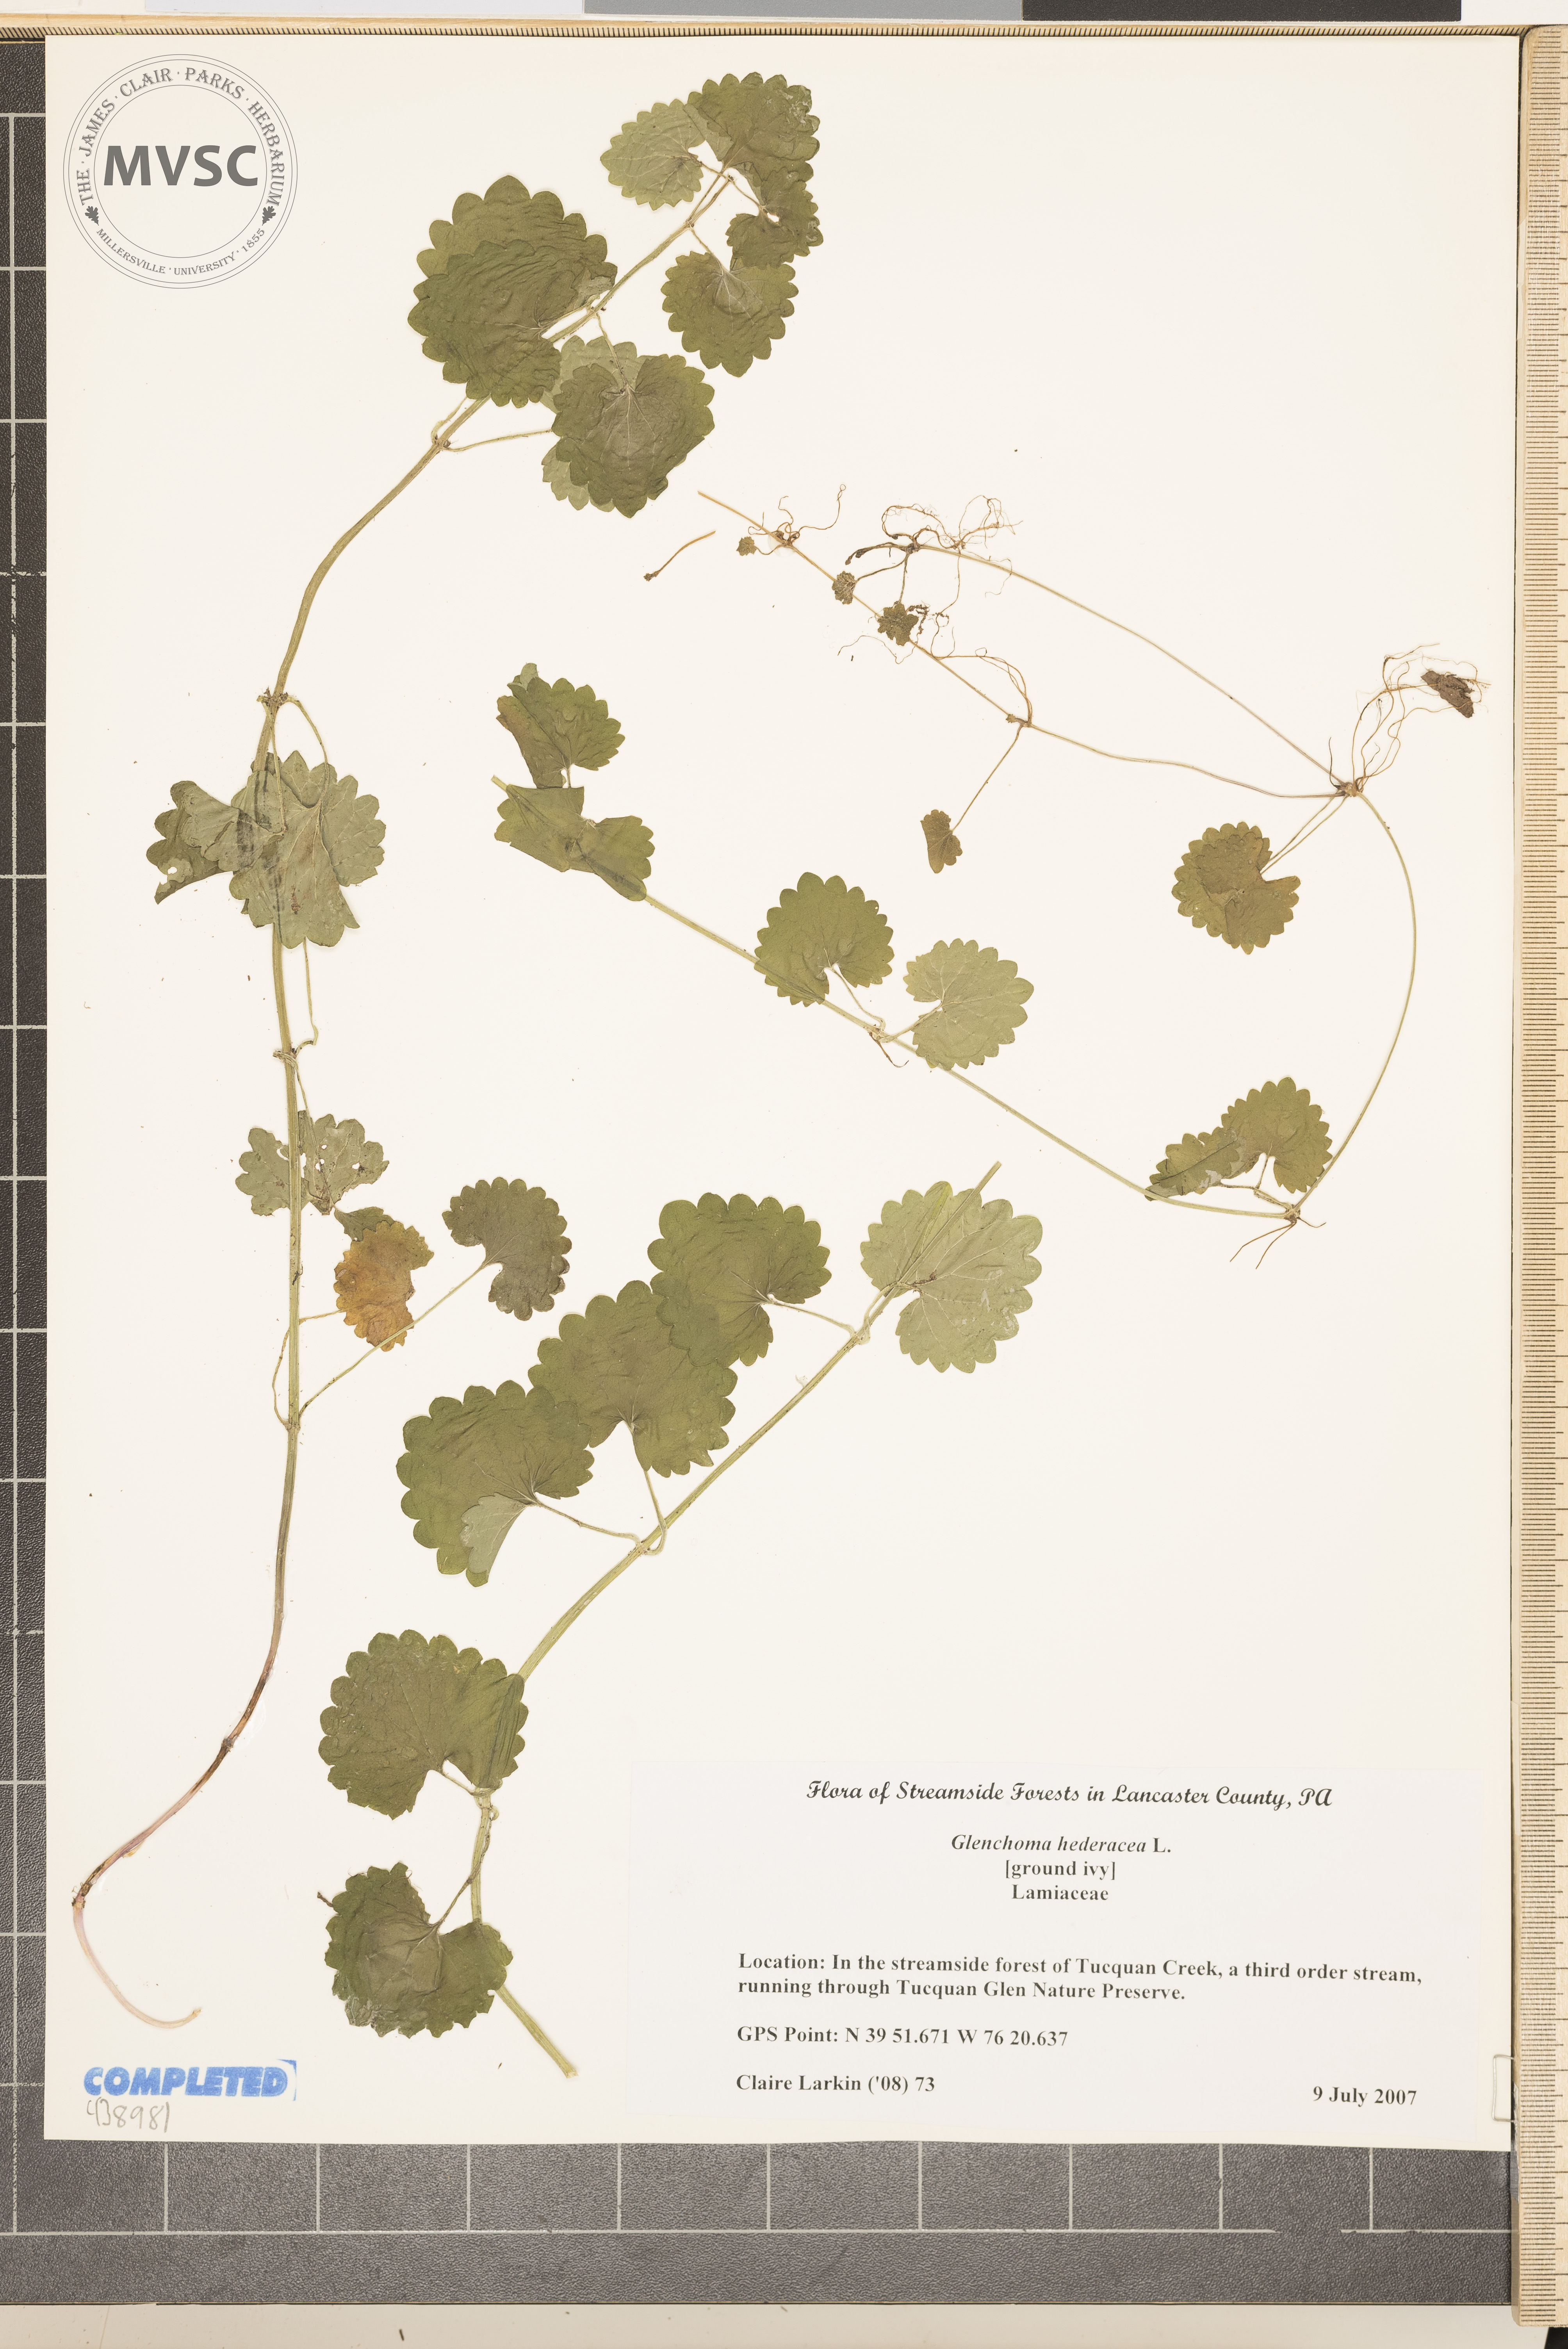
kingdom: Plantae
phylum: Tracheophyta
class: Magnoliopsida
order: Lamiales
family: Lamiaceae
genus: Glechoma
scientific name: Glechoma hederacea
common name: Ground ivy
